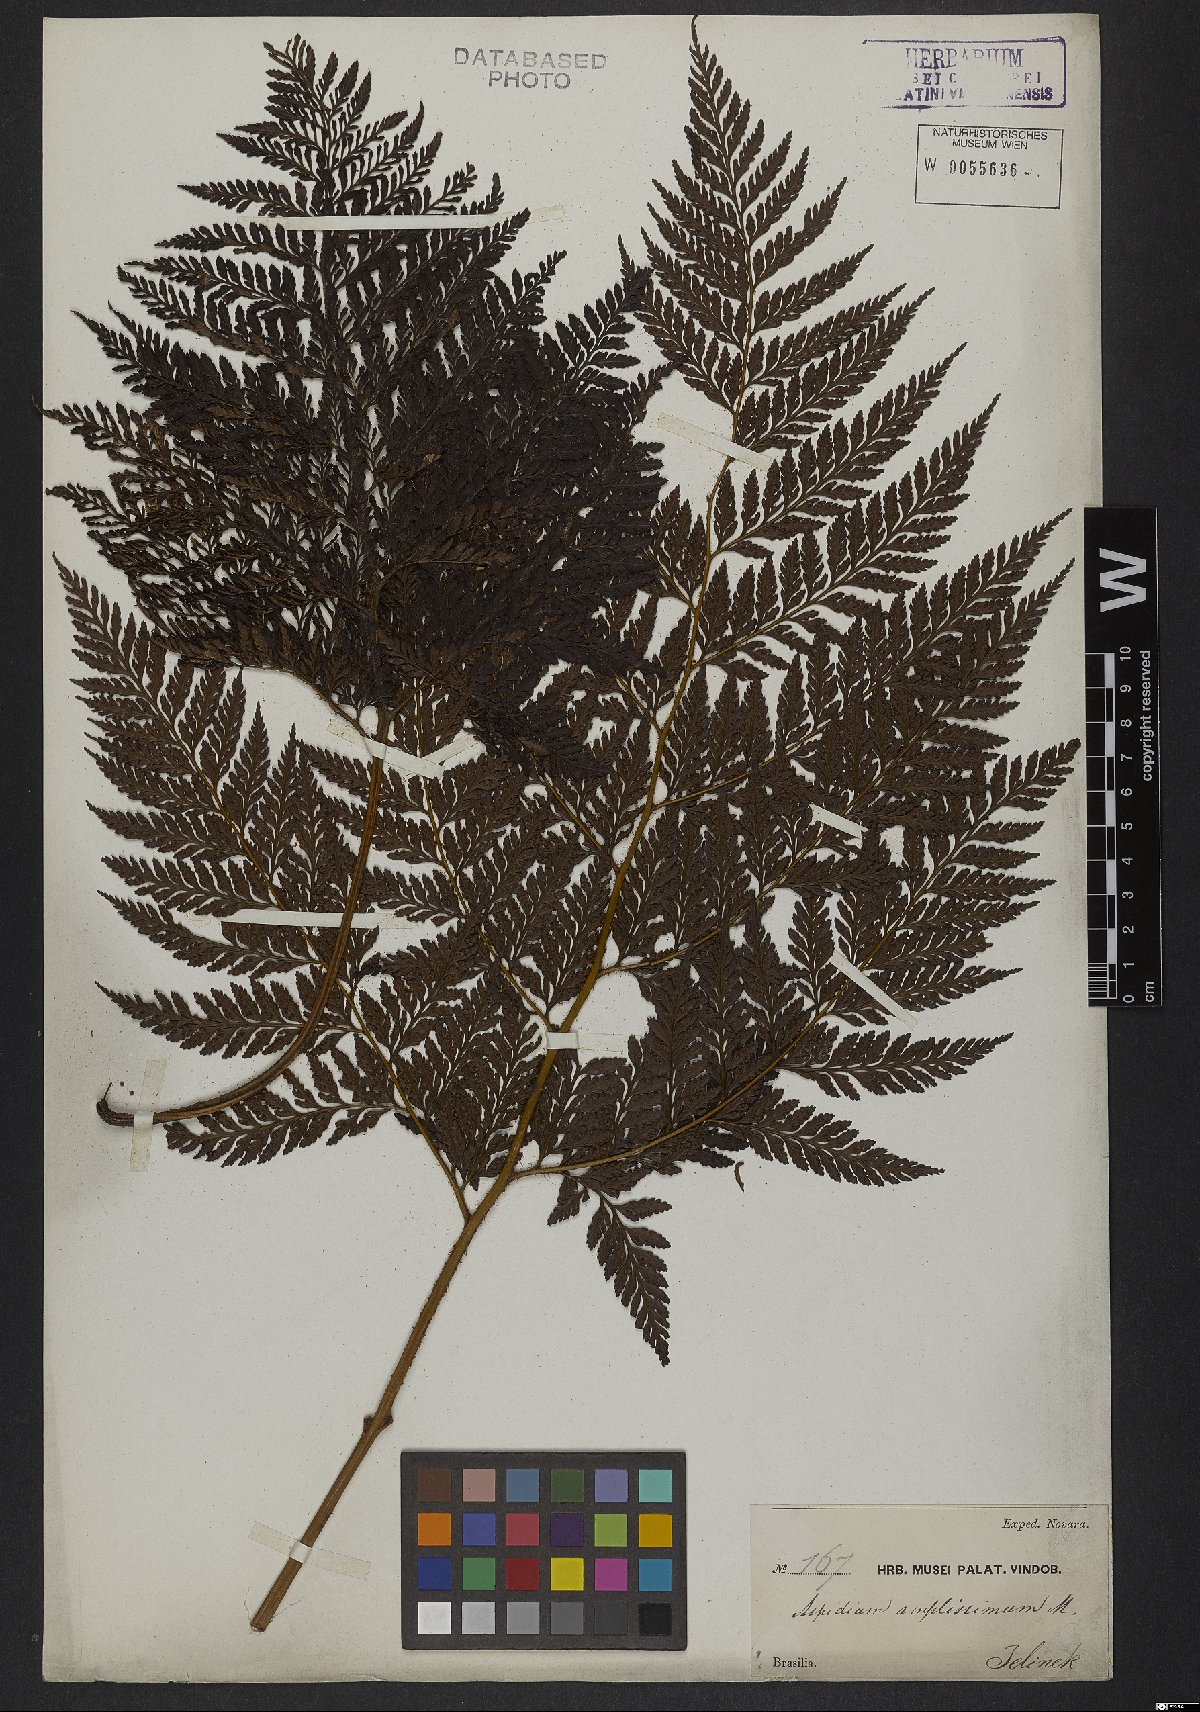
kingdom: Plantae
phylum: Tracheophyta
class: Polypodiopsida
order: Polypodiales
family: Dryopteridaceae
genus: Lastreopsis
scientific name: Lastreopsis amplissima
